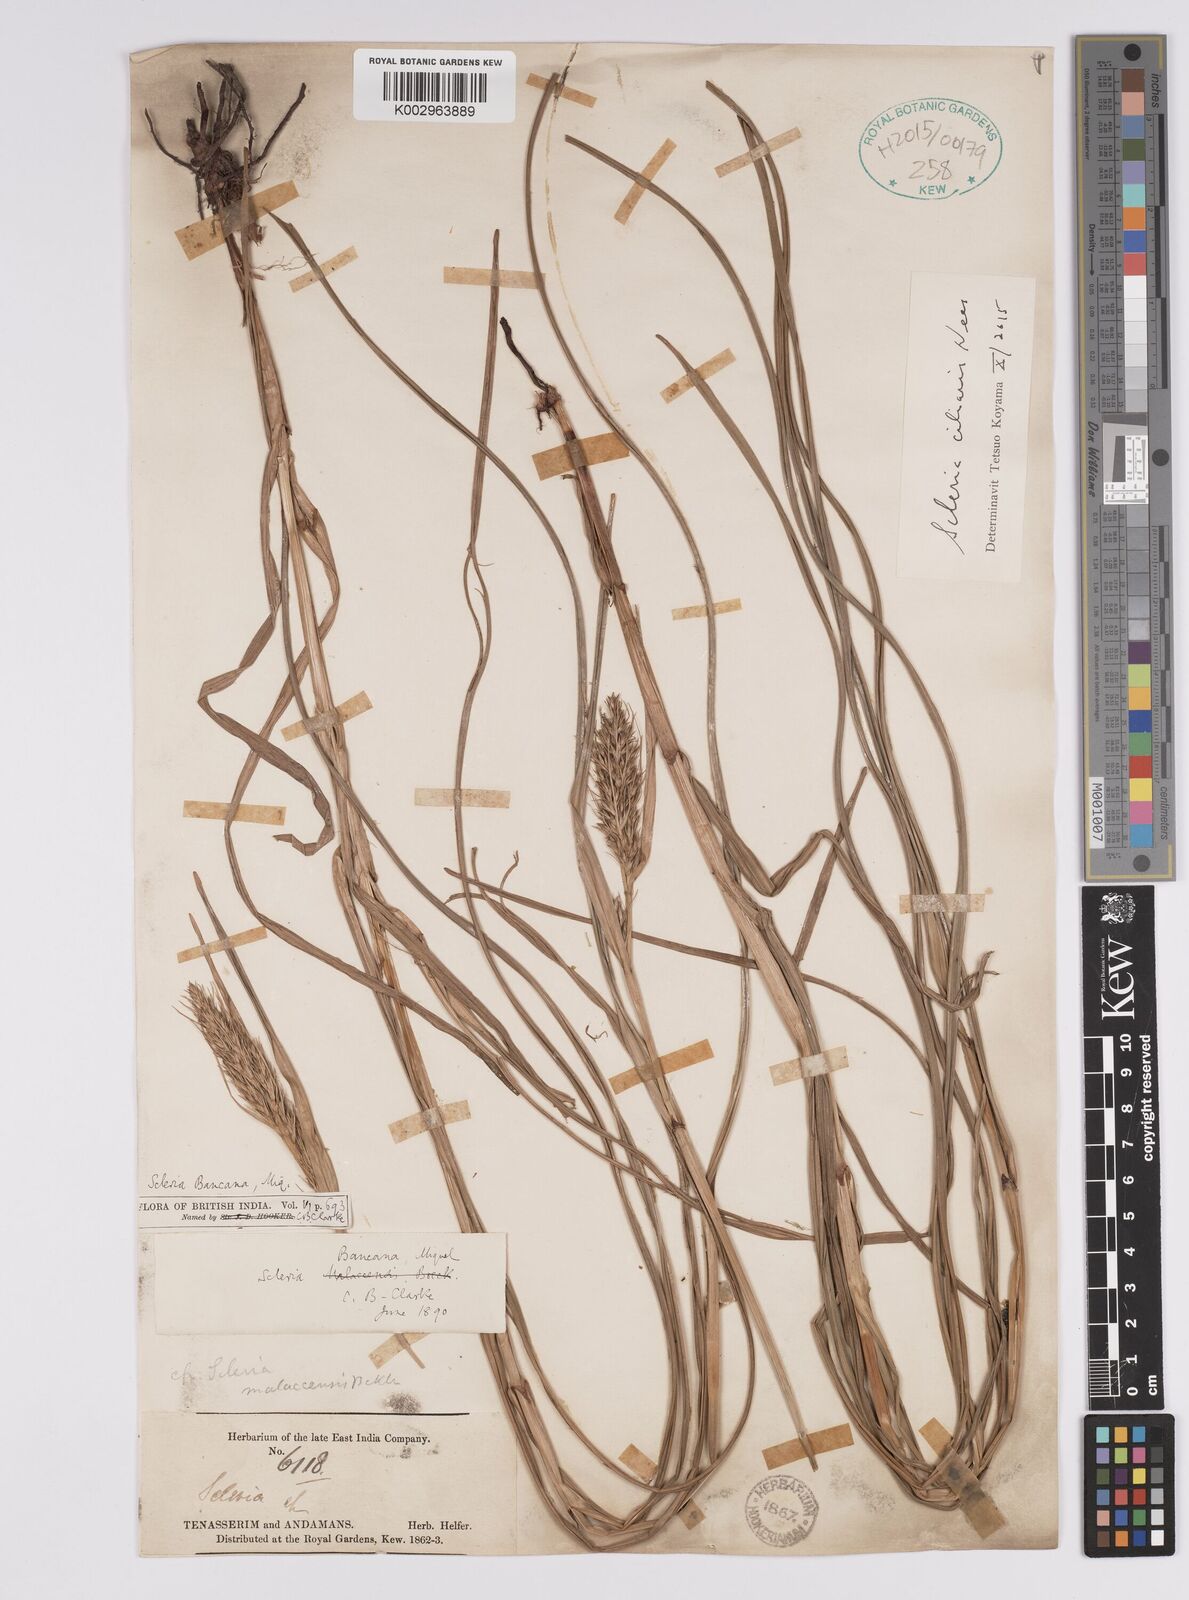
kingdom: Plantae
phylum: Tracheophyta
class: Liliopsida
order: Poales
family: Cyperaceae
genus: Scleria
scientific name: Scleria ciliaris
